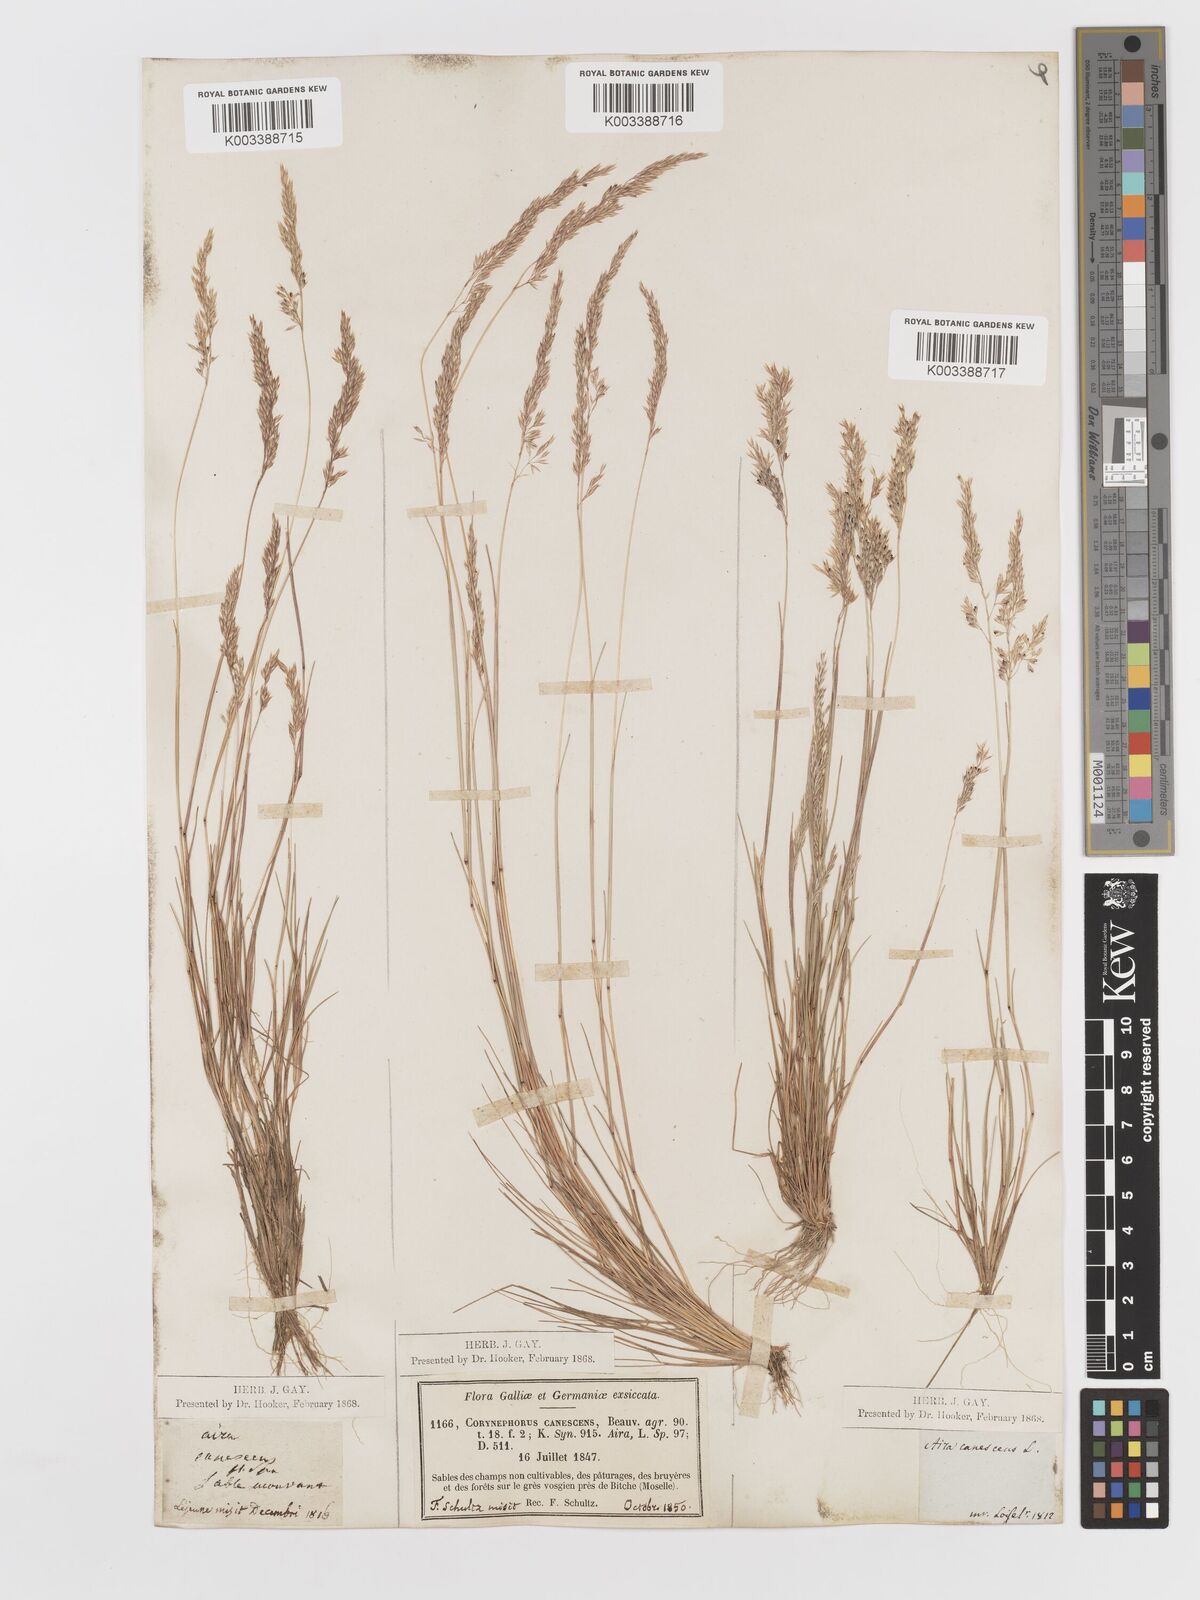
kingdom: Plantae
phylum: Tracheophyta
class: Liliopsida
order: Poales
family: Poaceae
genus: Corynephorus
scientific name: Corynephorus canescens
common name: Grey hair-grass
